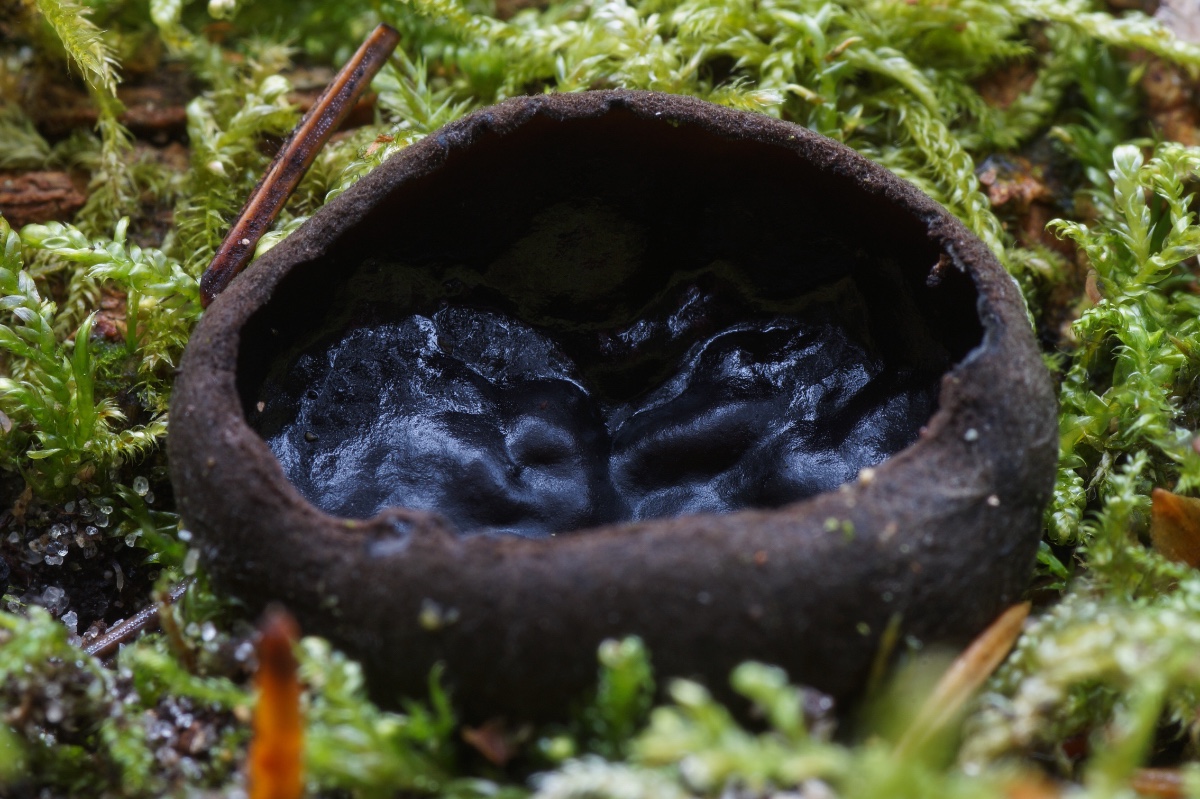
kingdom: Fungi
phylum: Ascomycota
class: Pezizomycetes
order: Pezizales
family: Sarcosomataceae
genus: Pseudoplectania
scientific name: Pseudoplectania nigrella
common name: almindelig sortbæger
